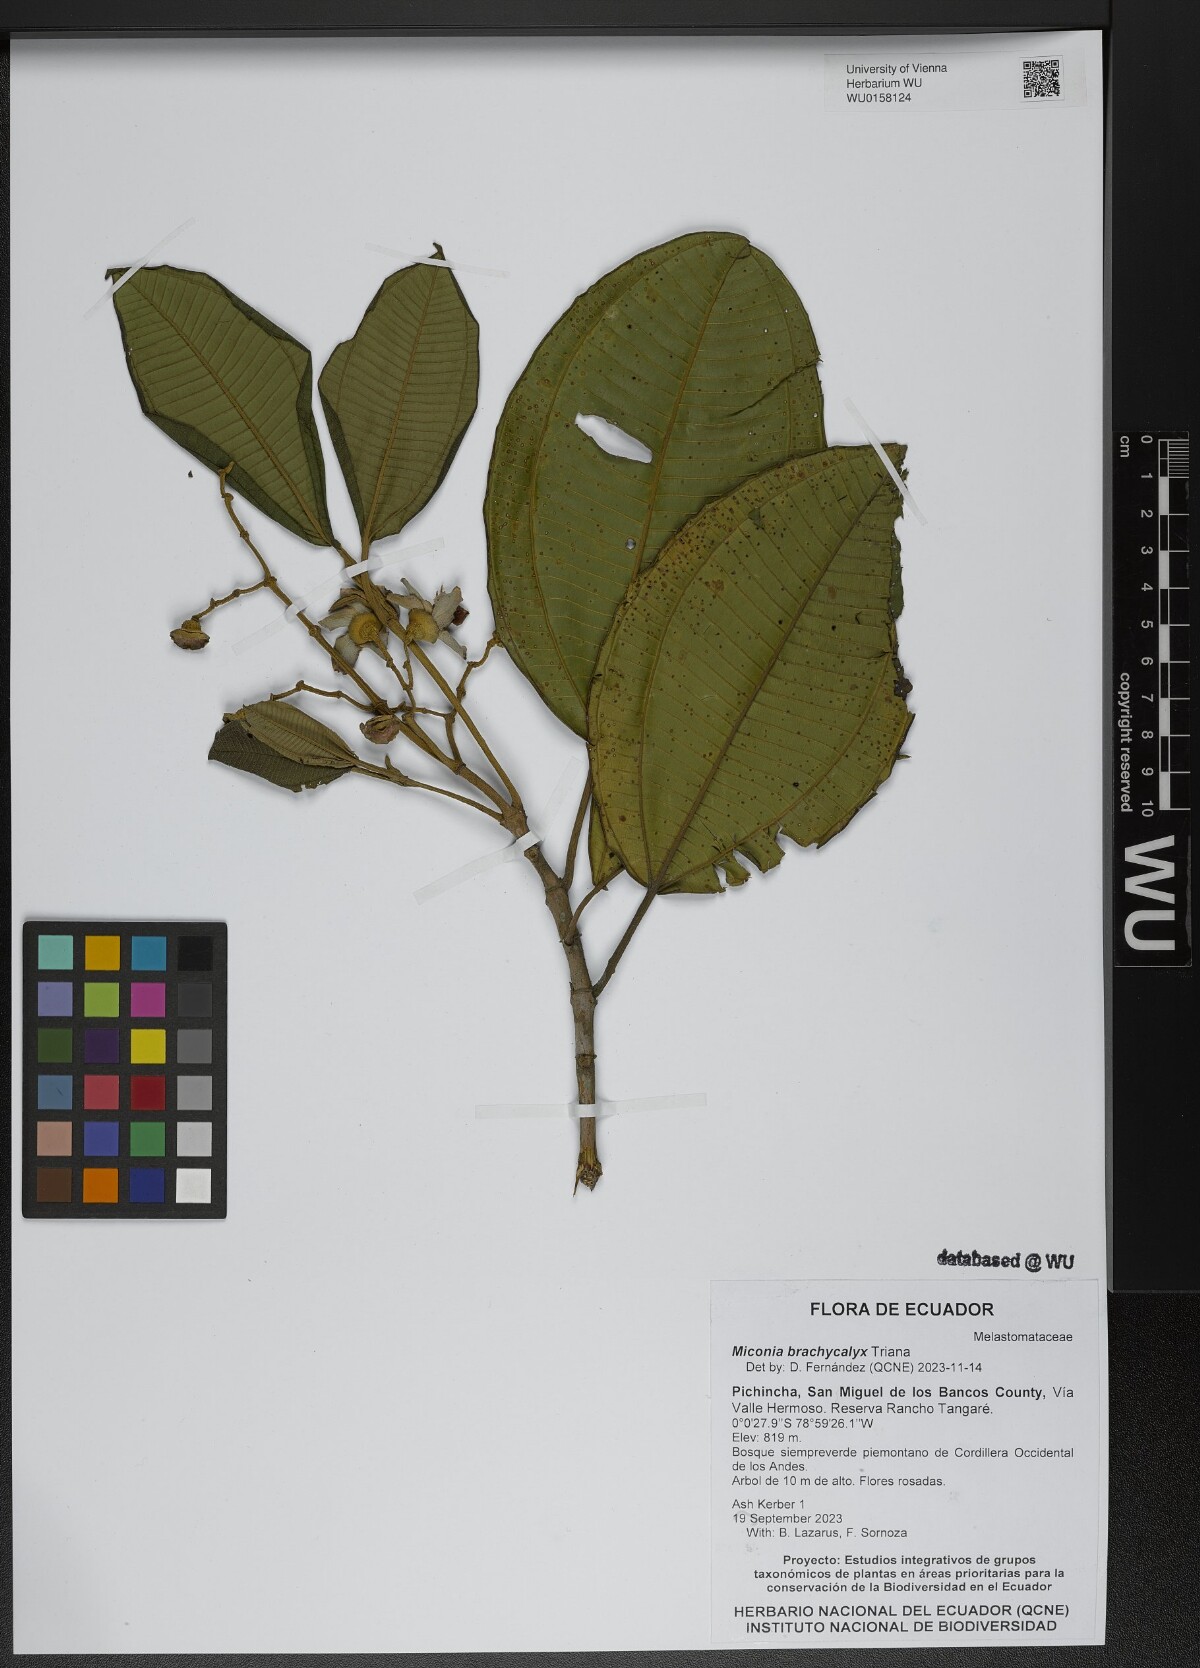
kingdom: Plantae
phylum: Tracheophyta
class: Magnoliopsida
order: Myrtales
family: Melastomataceae
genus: Miconia
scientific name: Miconia brachycalyx
